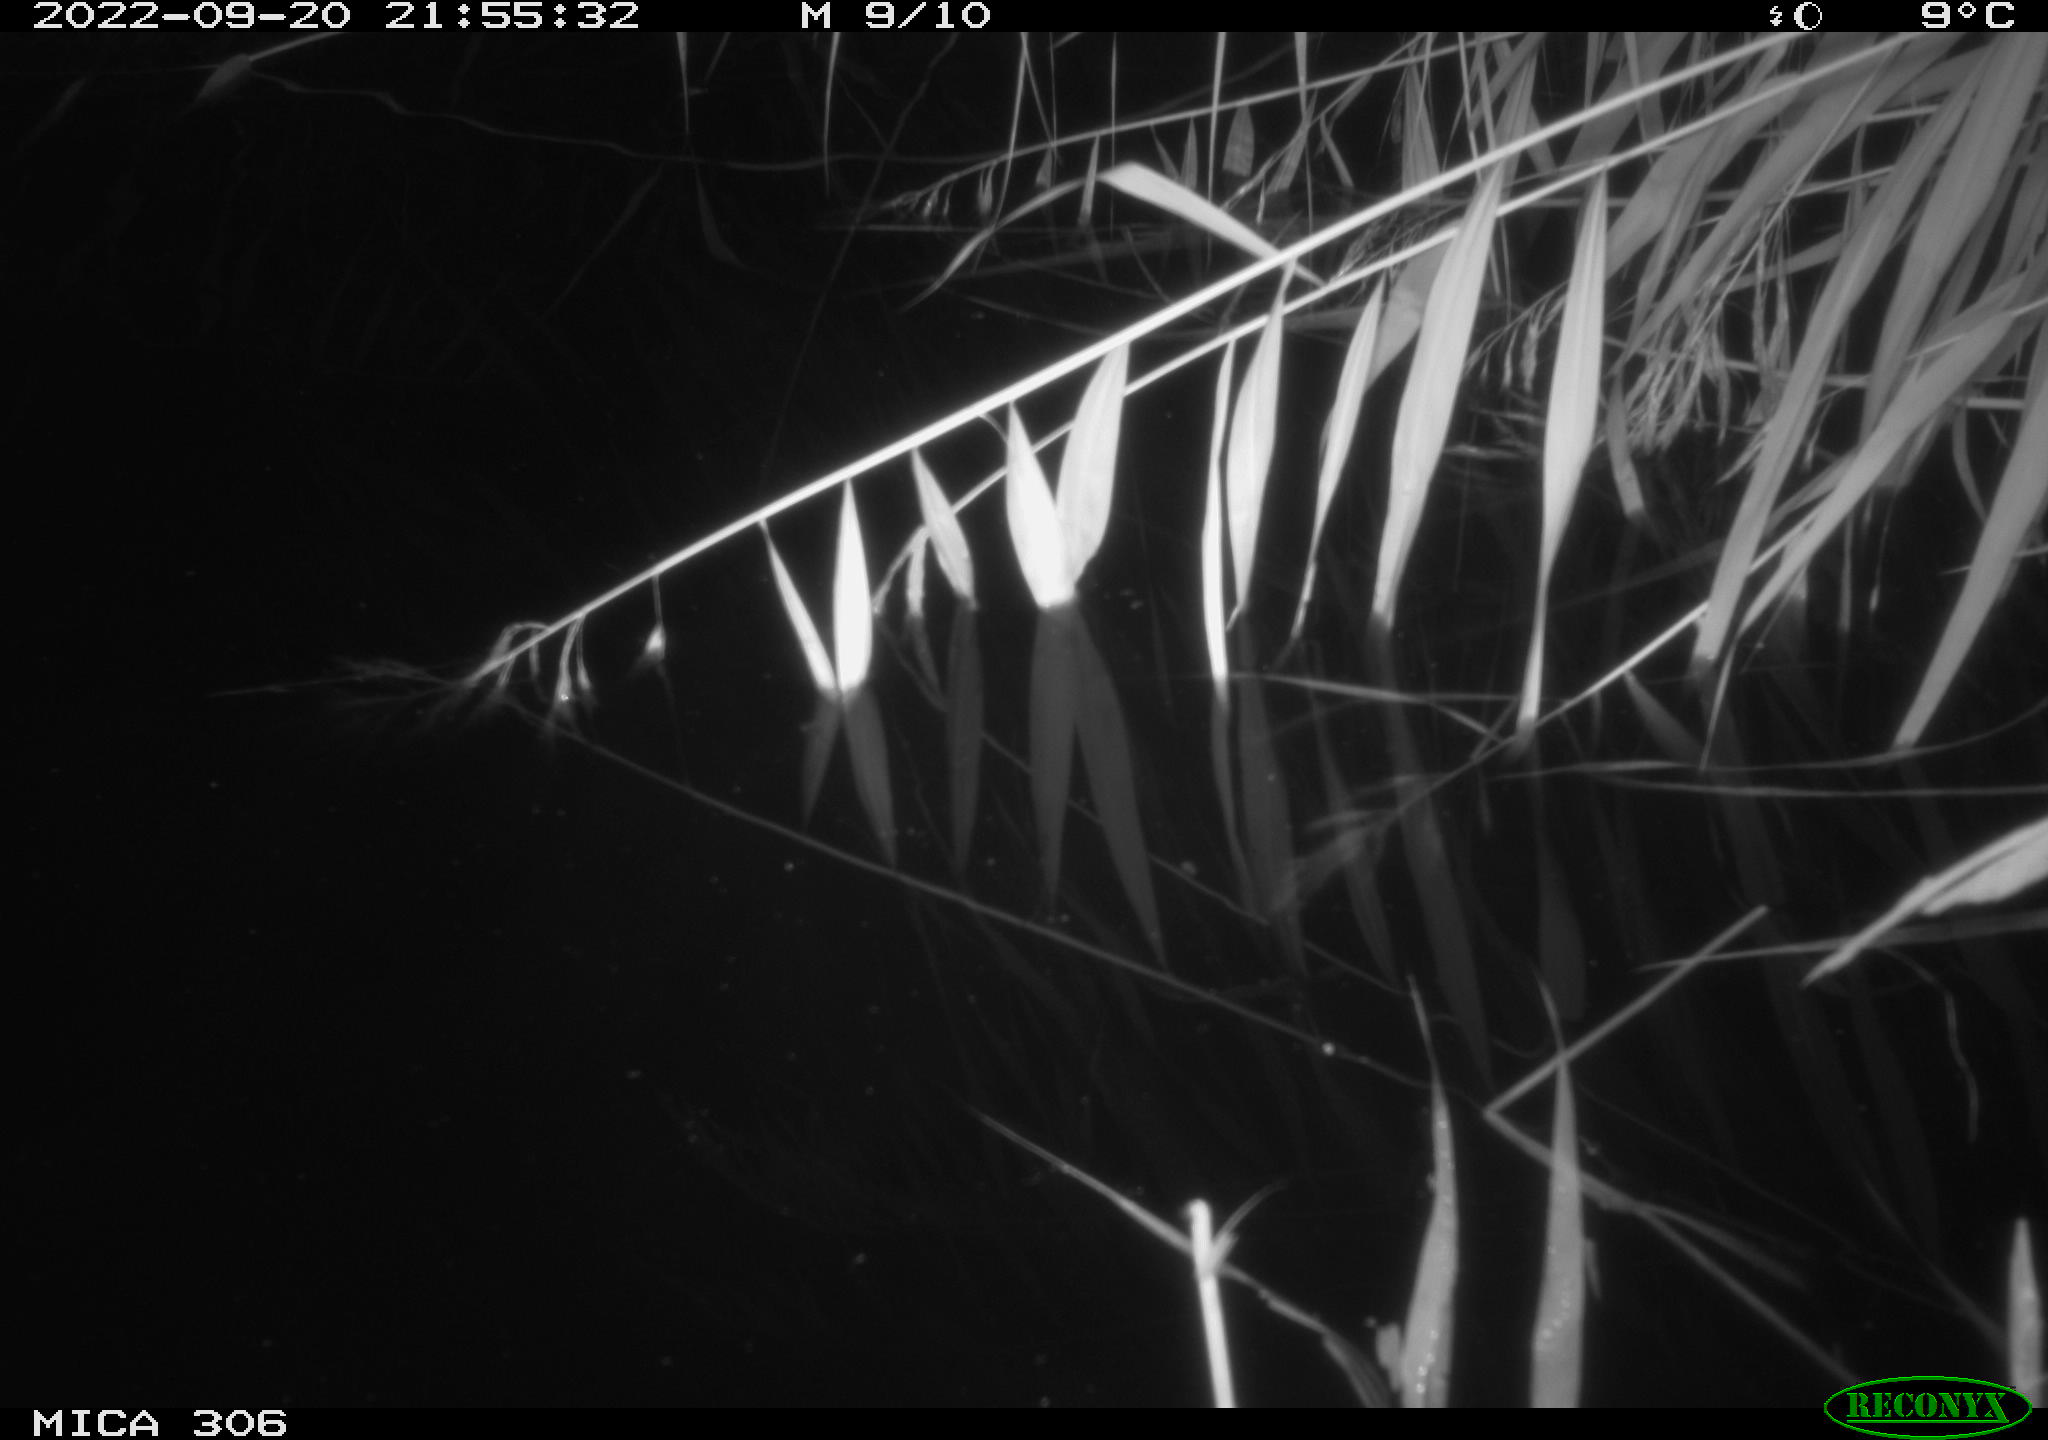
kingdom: Animalia
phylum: Chordata
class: Mammalia
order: Rodentia
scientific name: Rodentia
